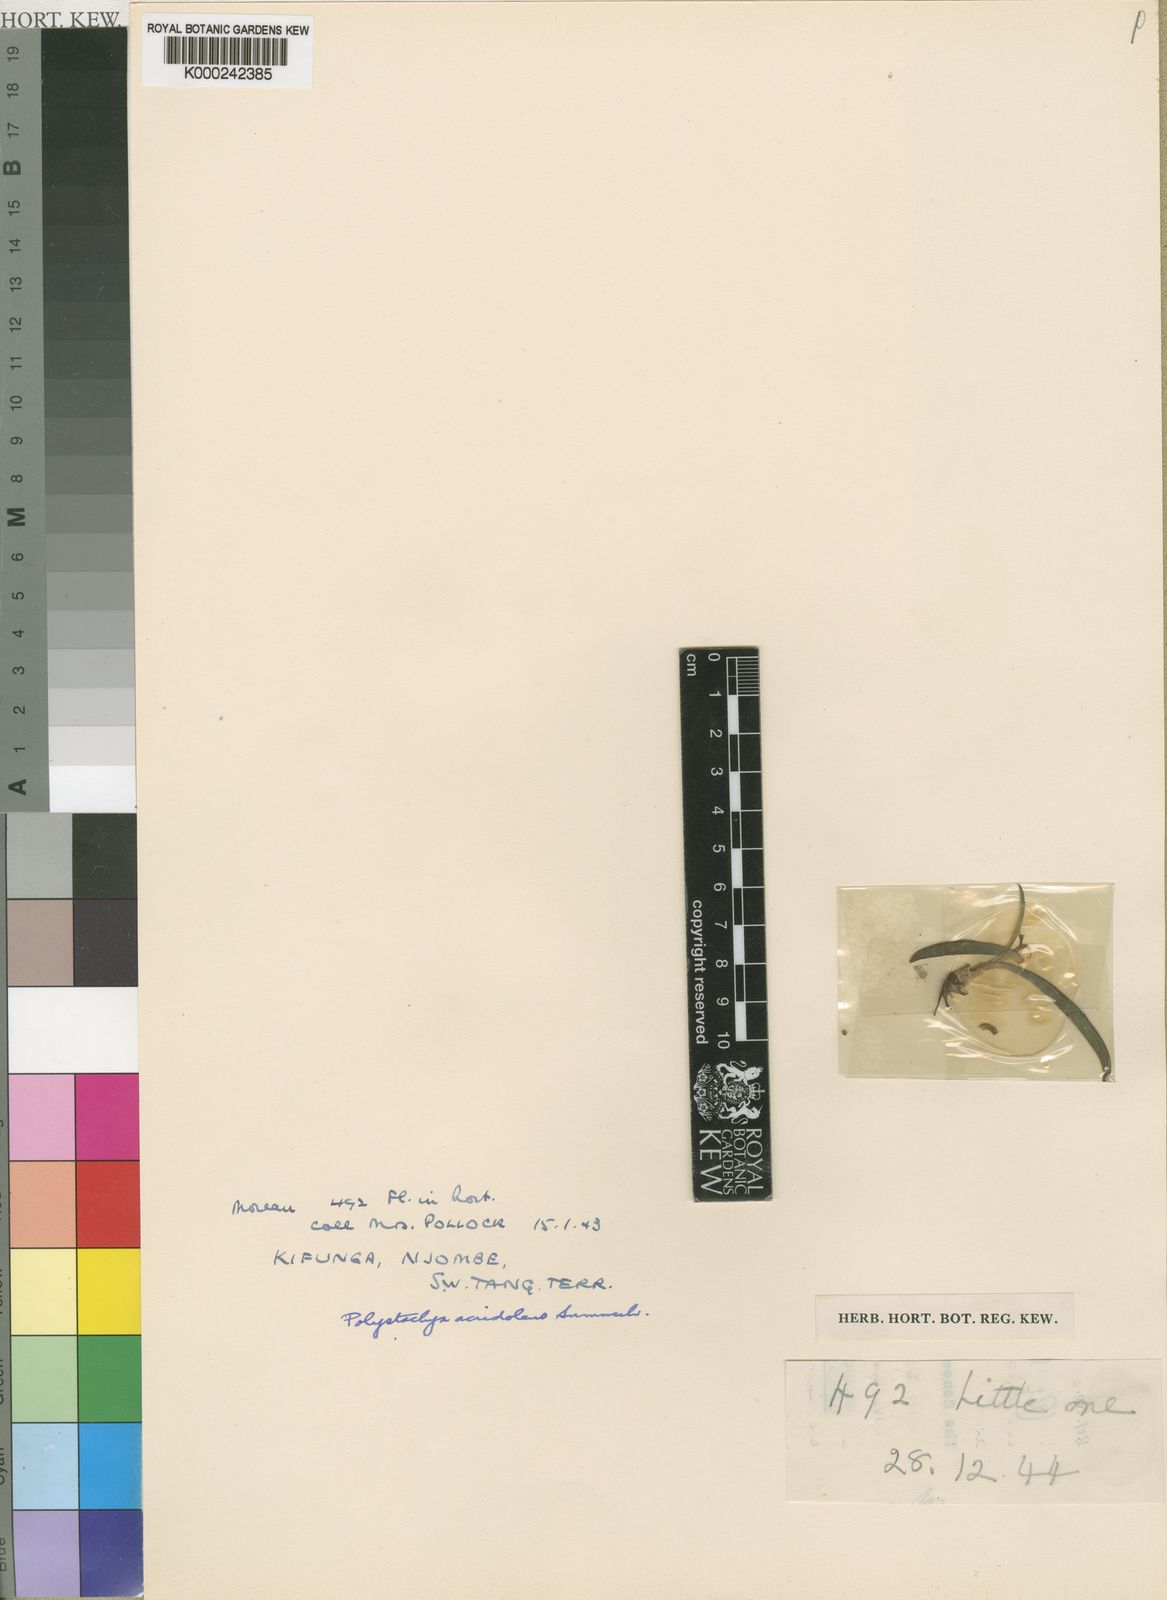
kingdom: Plantae
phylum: Tracheophyta
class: Liliopsida
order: Asparagales
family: Orchidaceae
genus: Polystachya
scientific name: Polystachya acridolens
